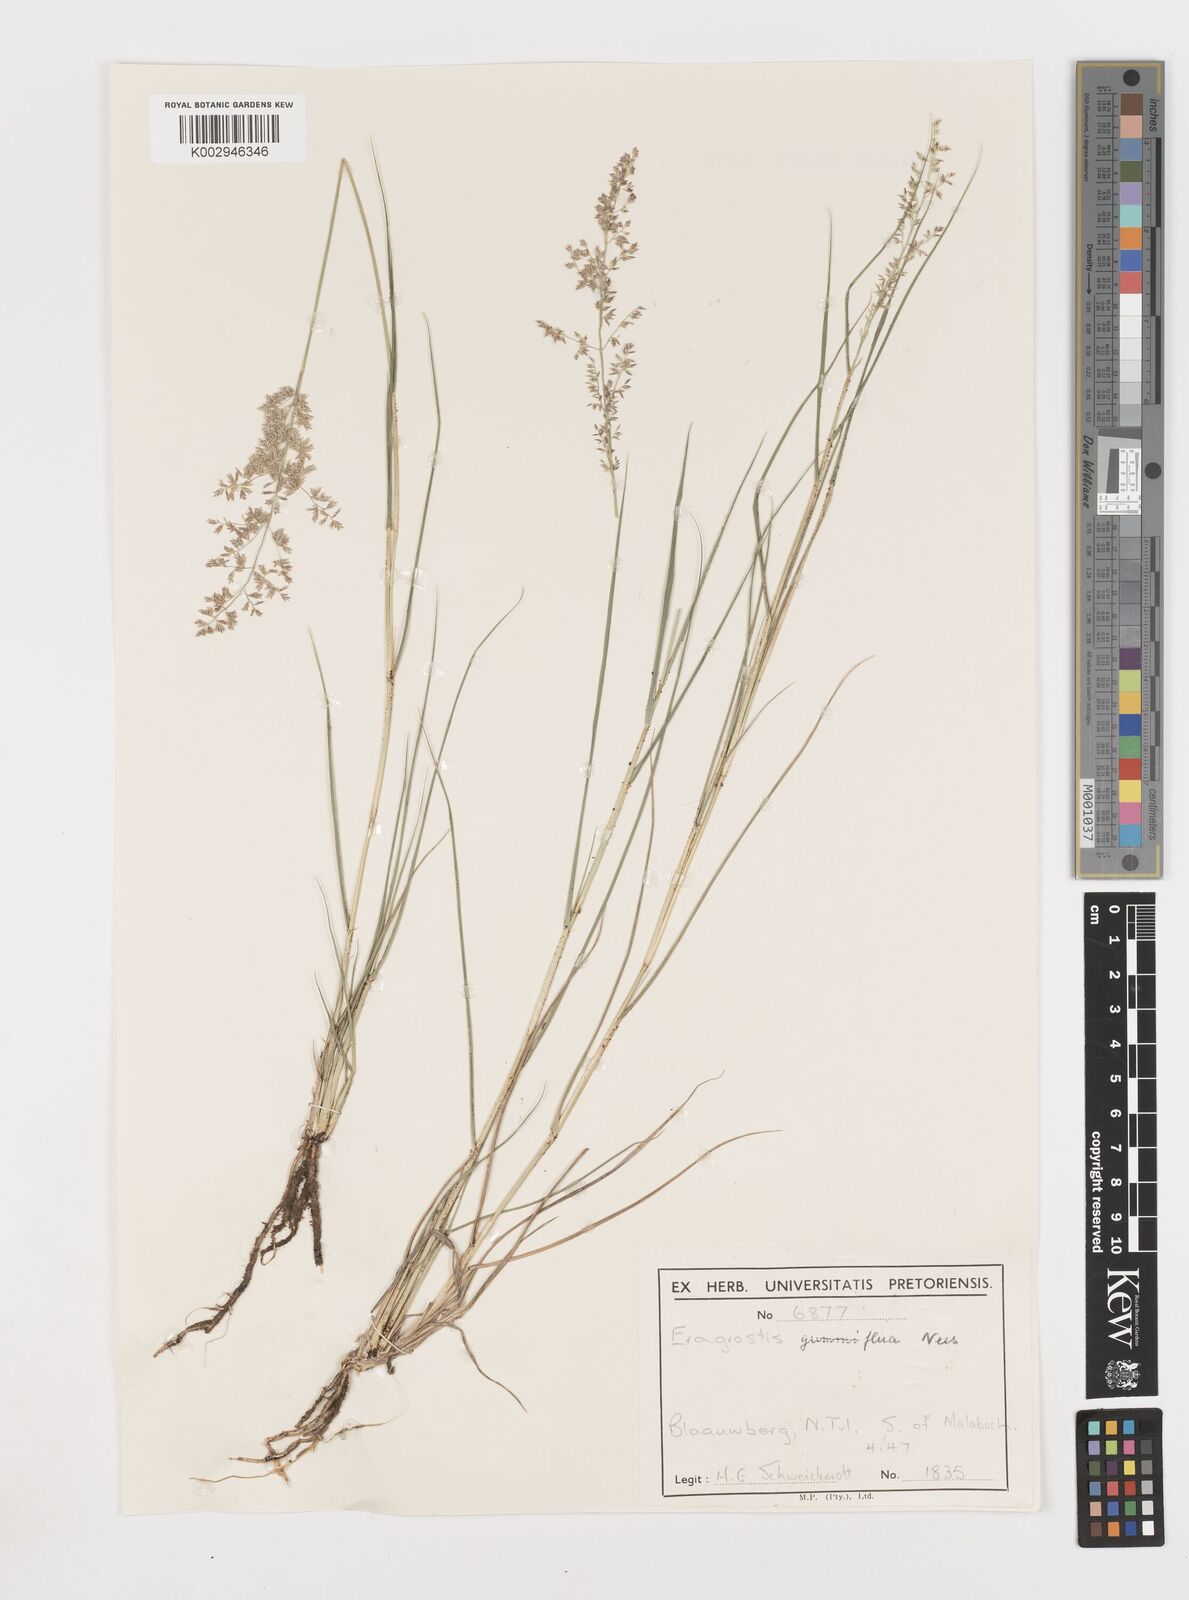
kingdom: Plantae
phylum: Tracheophyta
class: Liliopsida
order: Poales
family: Poaceae
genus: Eragrostis
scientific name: Eragrostis gummiflua
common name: Gum grass
